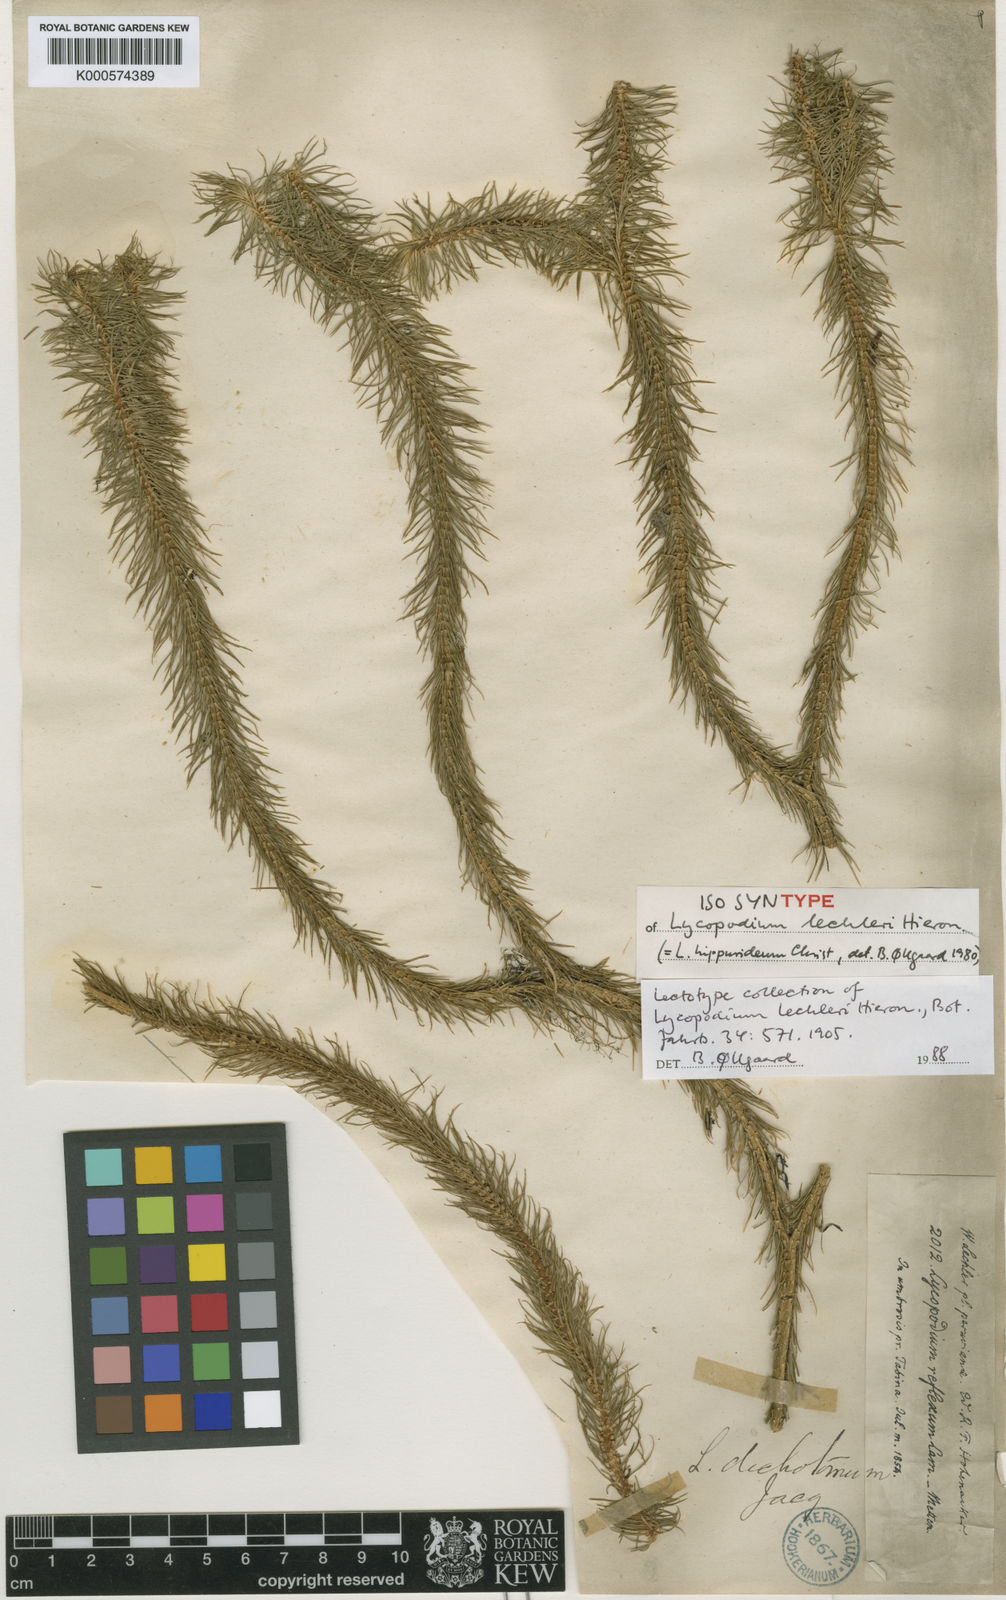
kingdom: Plantae
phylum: Tracheophyta
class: Lycopodiopsida
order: Lycopodiales
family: Lycopodiaceae
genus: Phlegmariurus
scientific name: Phlegmariurus hippurideus
